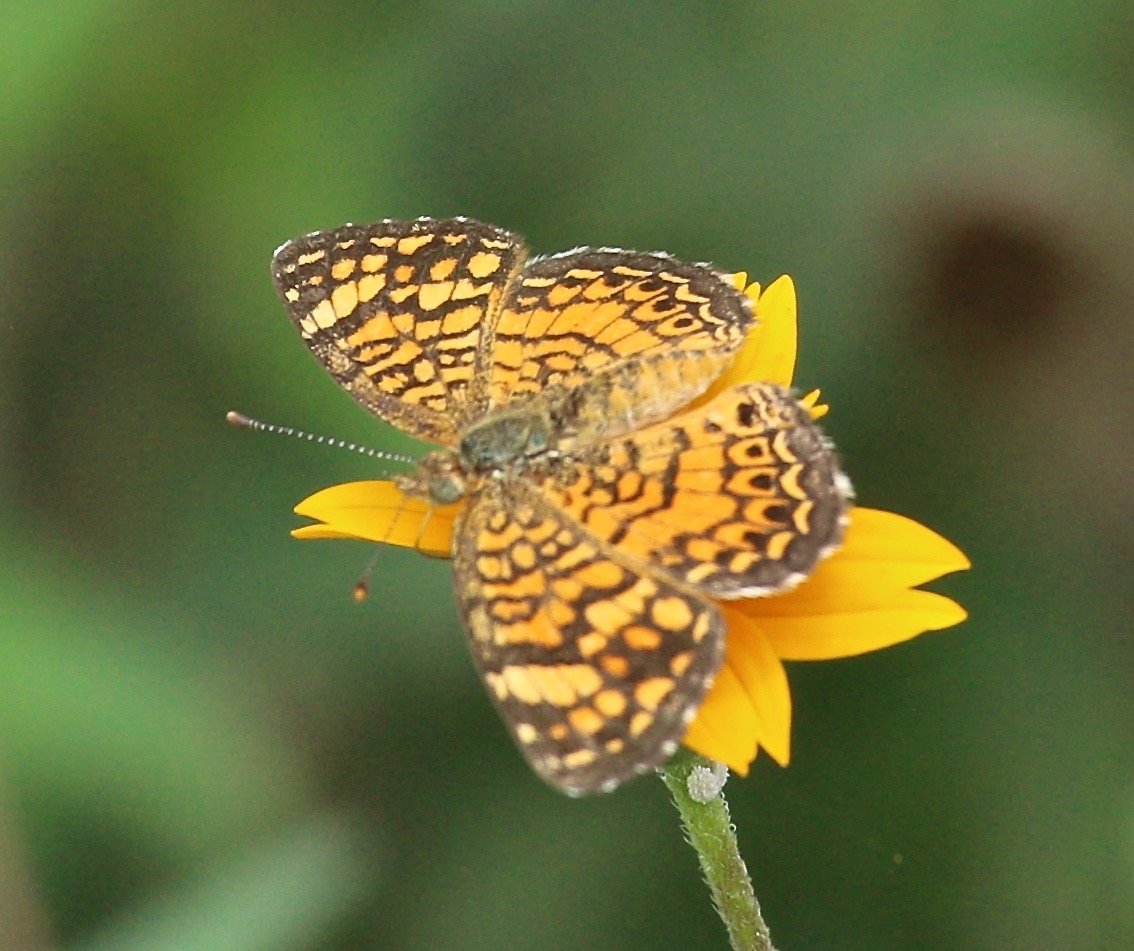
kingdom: Animalia
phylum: Arthropoda
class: Insecta
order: Lepidoptera
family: Nymphalidae
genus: Phyciodes
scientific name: Phyciodes vesta
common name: Vesta Crescent
